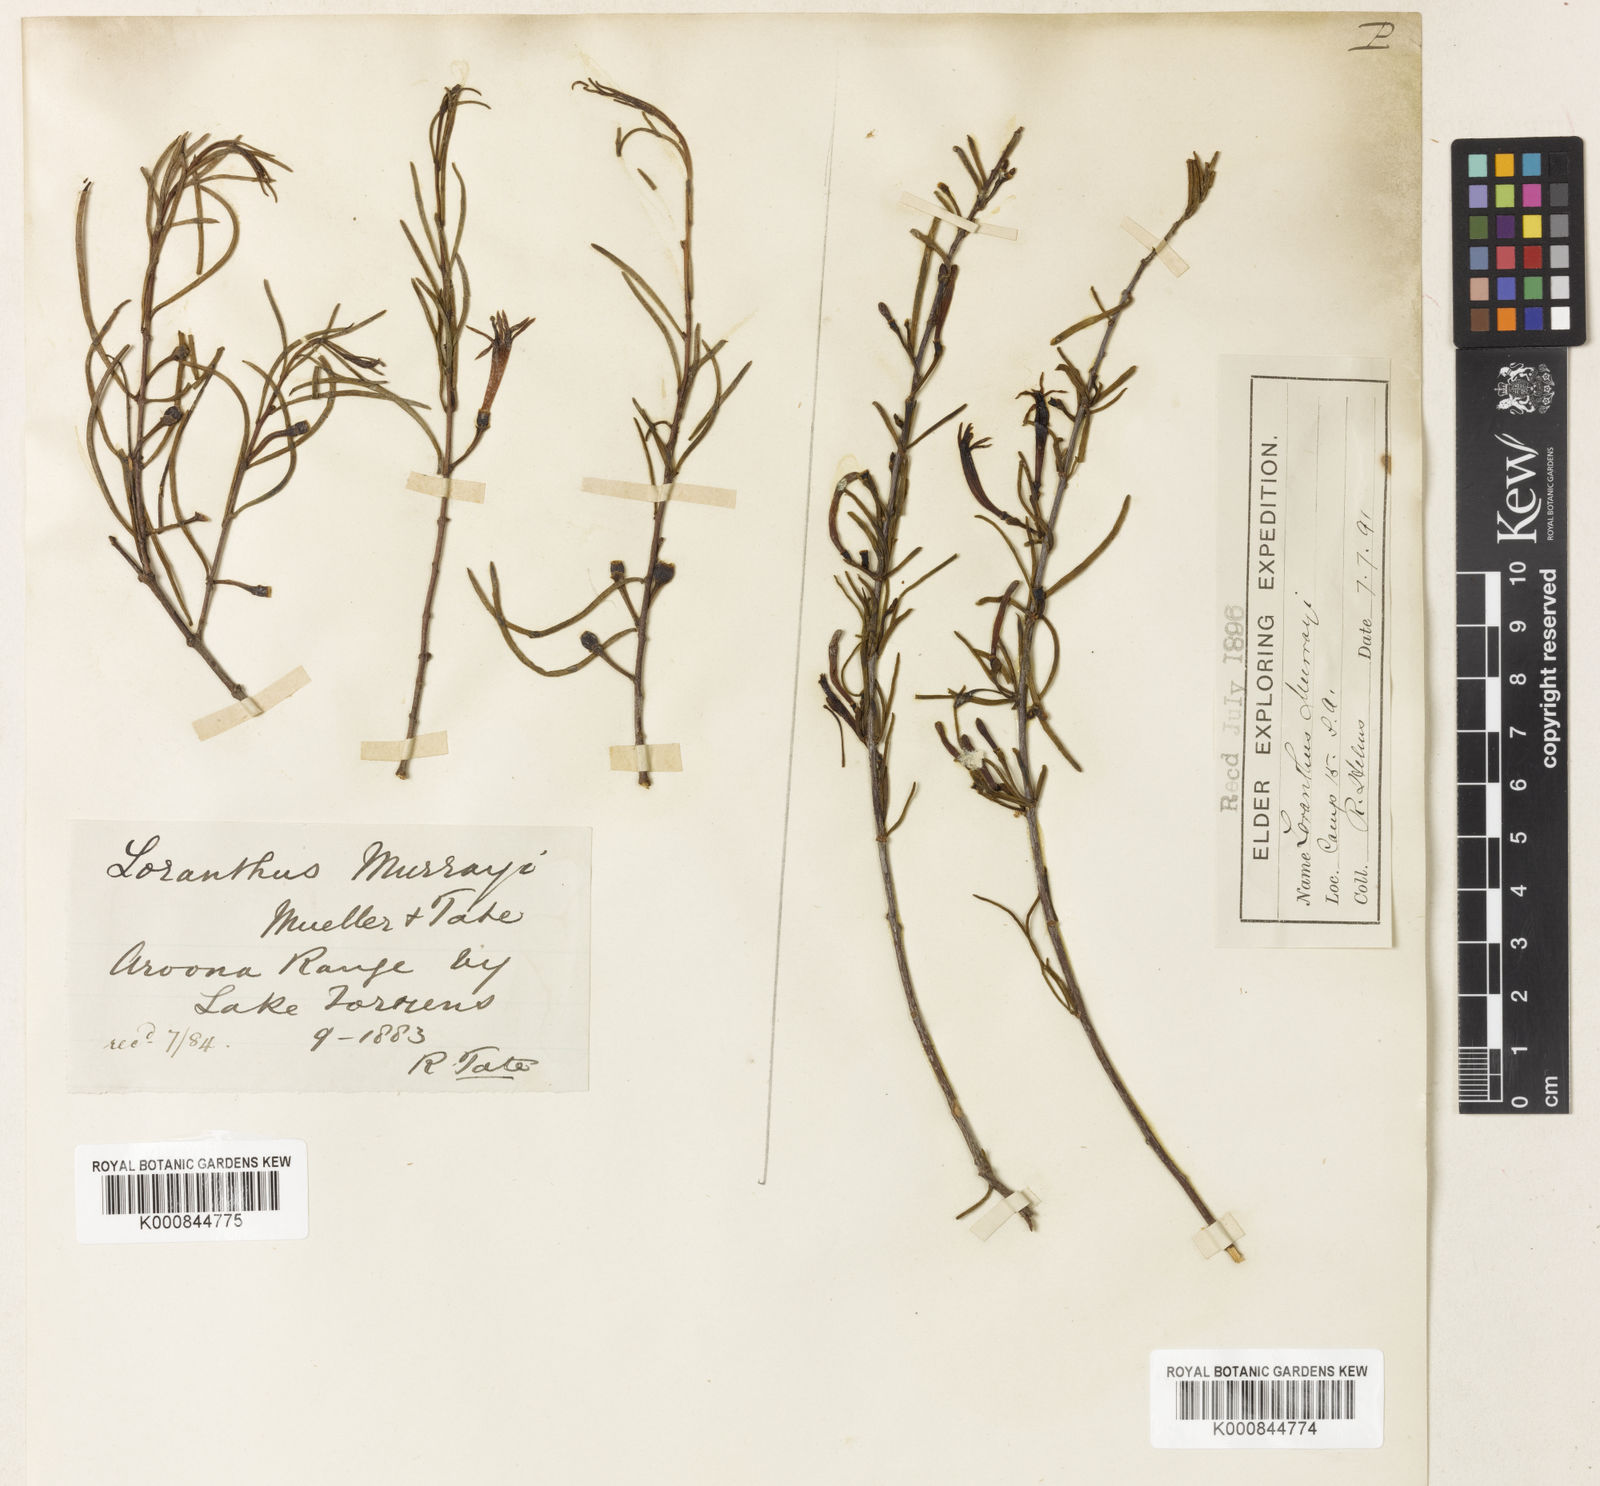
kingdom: Plantae
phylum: Tracheophyta
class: Magnoliopsida
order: Santalales
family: Loranthaceae
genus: Lysiana
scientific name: Lysiana murrayi
